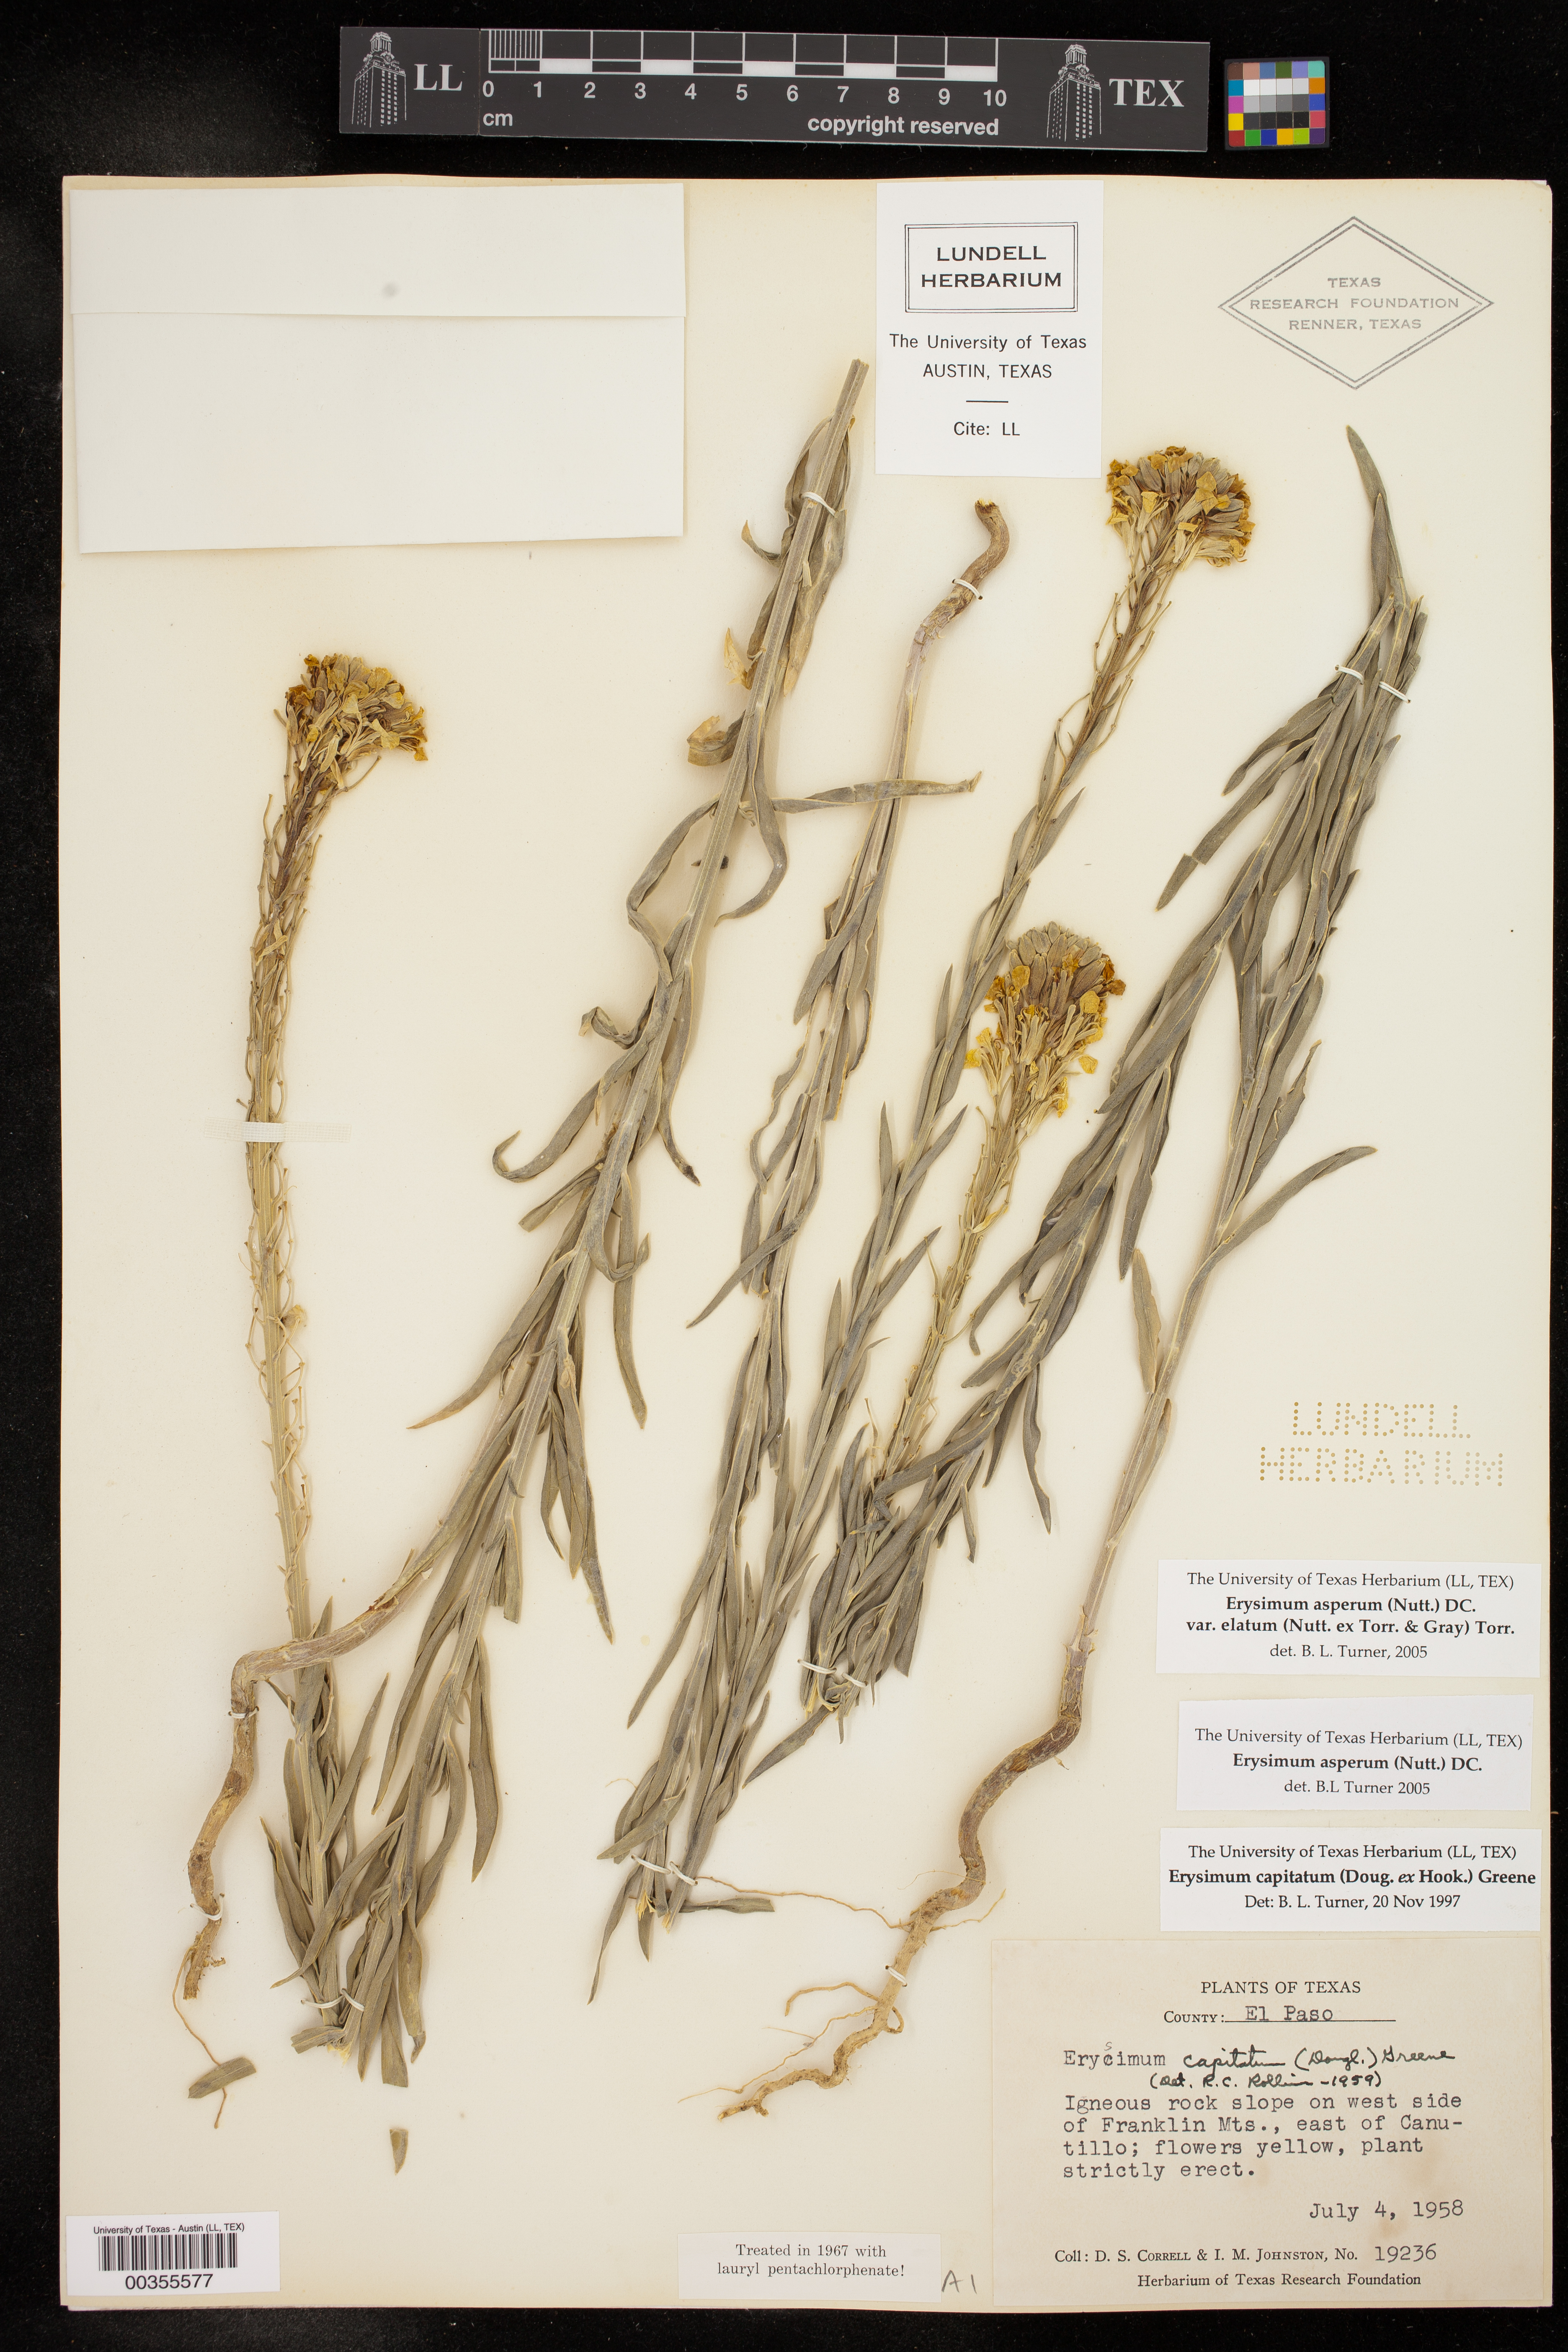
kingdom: Plantae
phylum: Tracheophyta
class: Magnoliopsida
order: Brassicales
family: Brassicaceae
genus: Erysimum
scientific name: Erysimum capitatum
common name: Western wallflower
